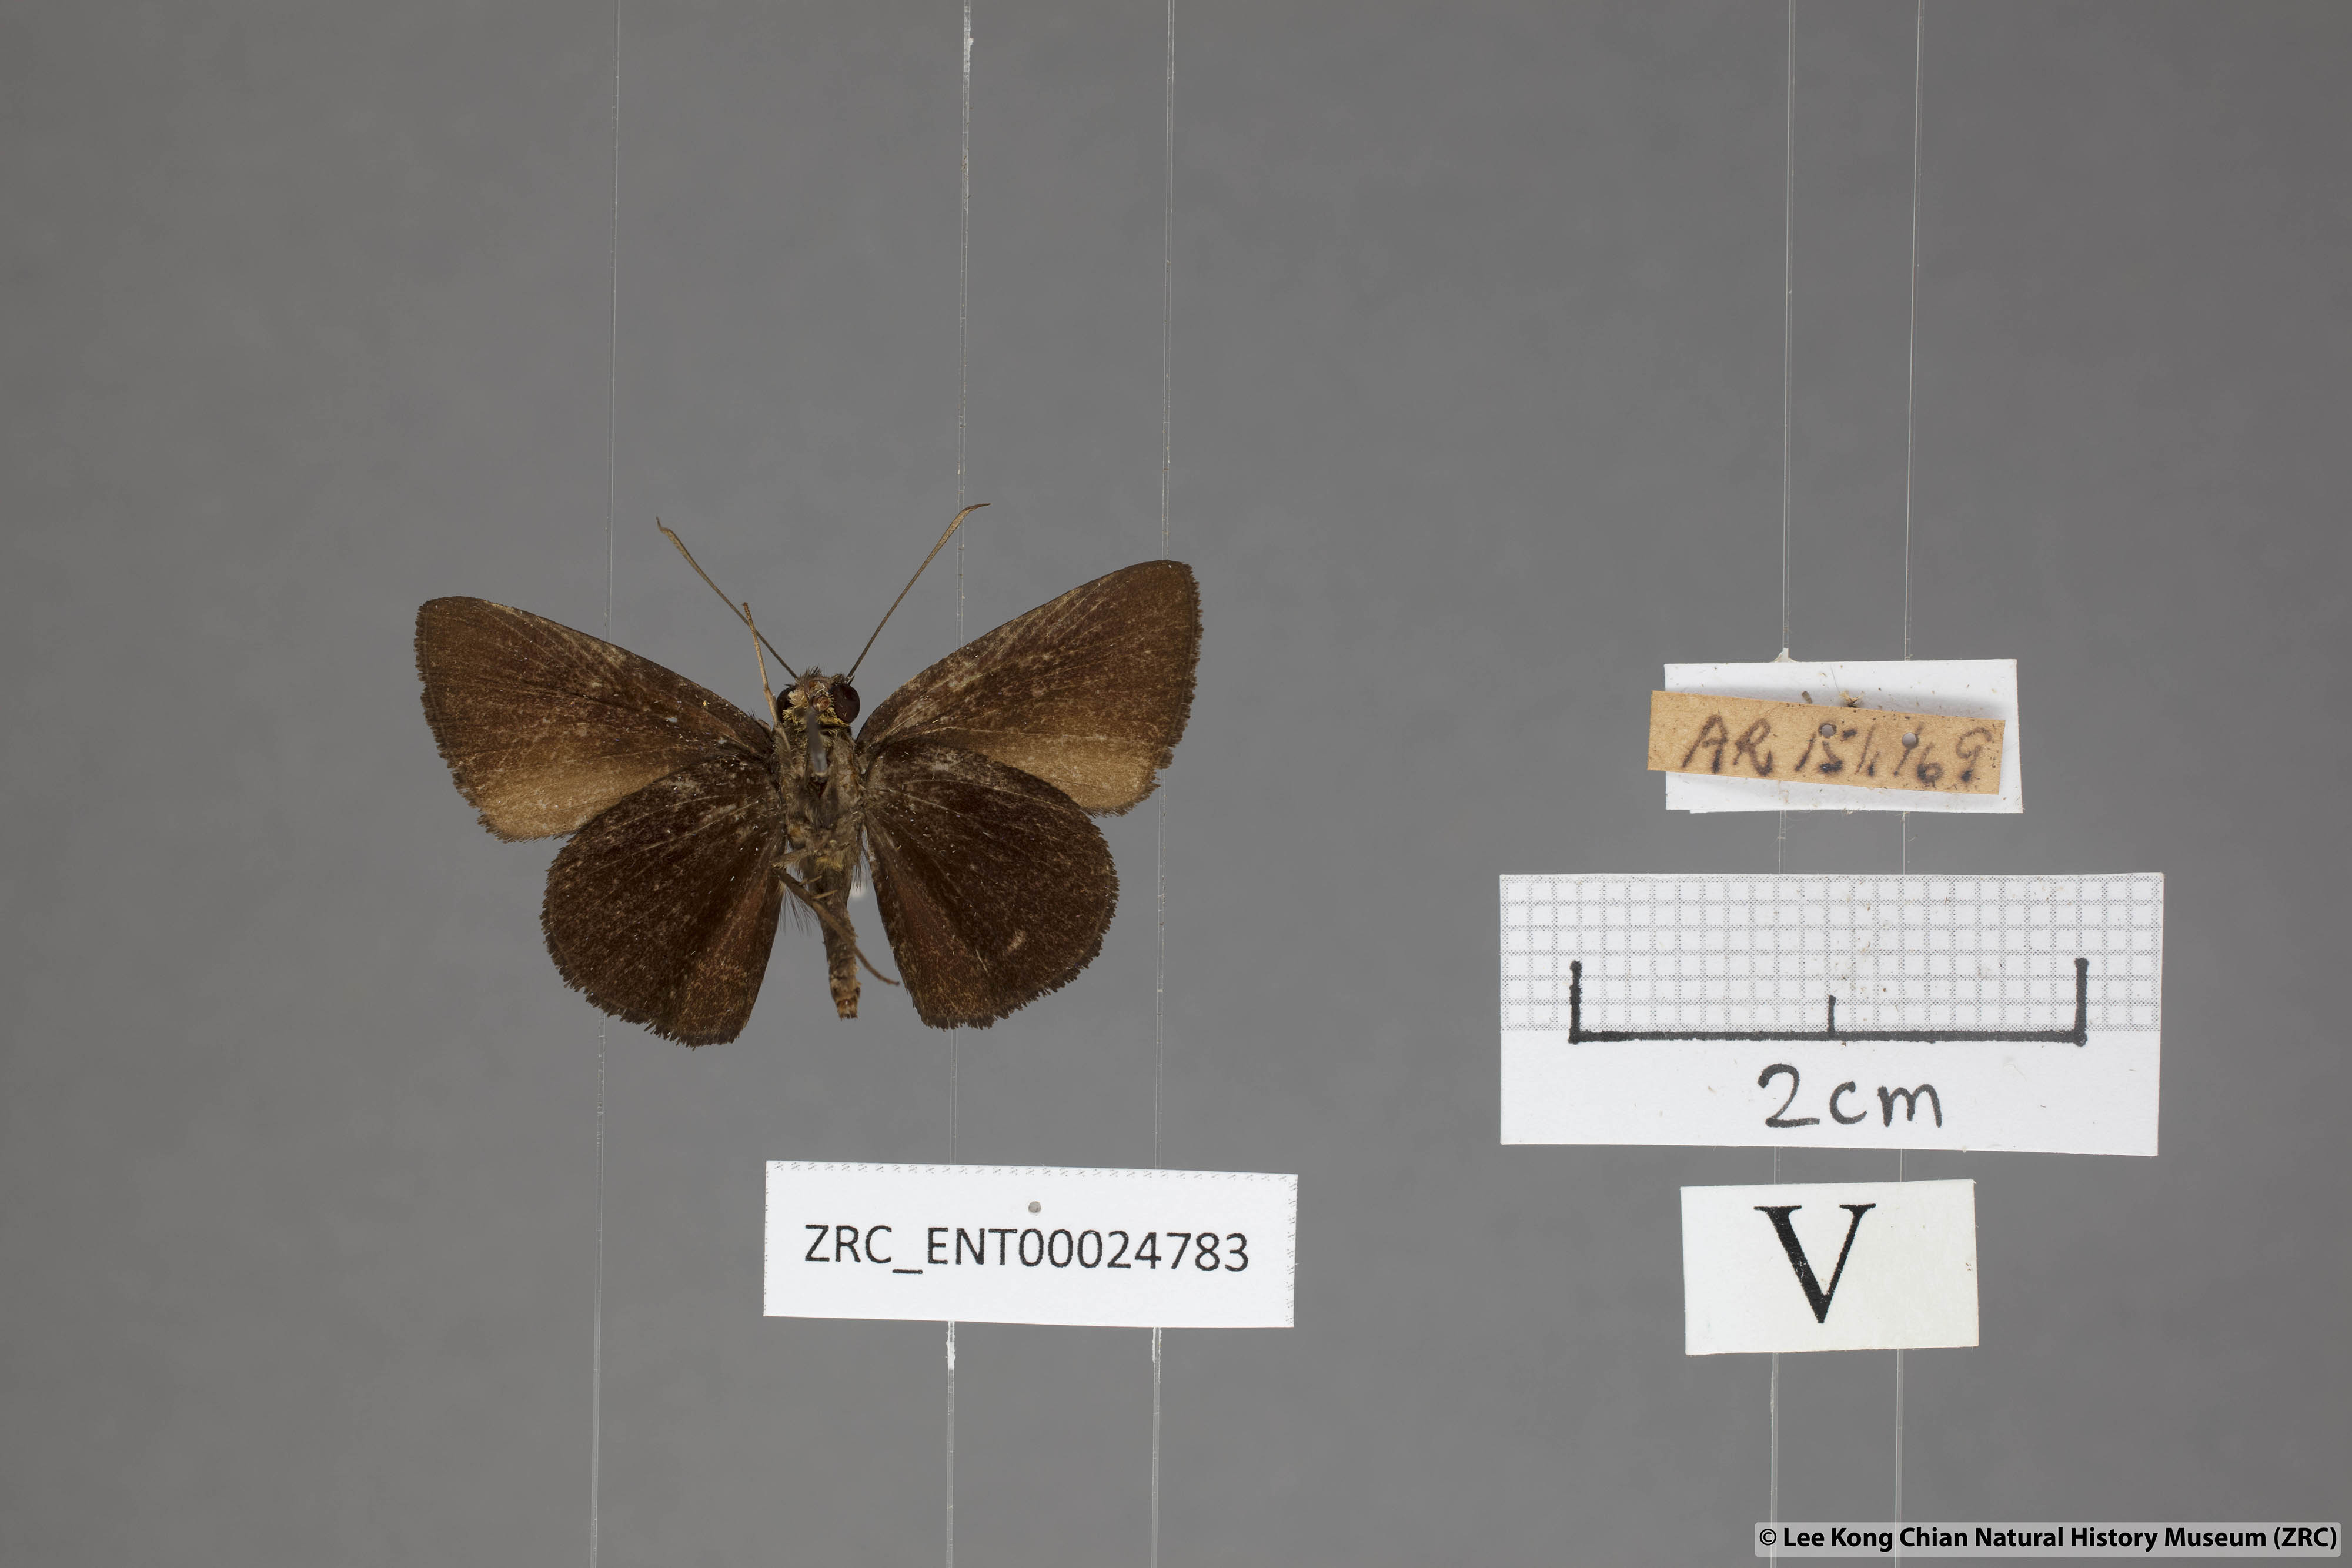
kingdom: Animalia
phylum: Arthropoda
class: Insecta
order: Lepidoptera
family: Hesperiidae
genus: Iambrix
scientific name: Iambrix
